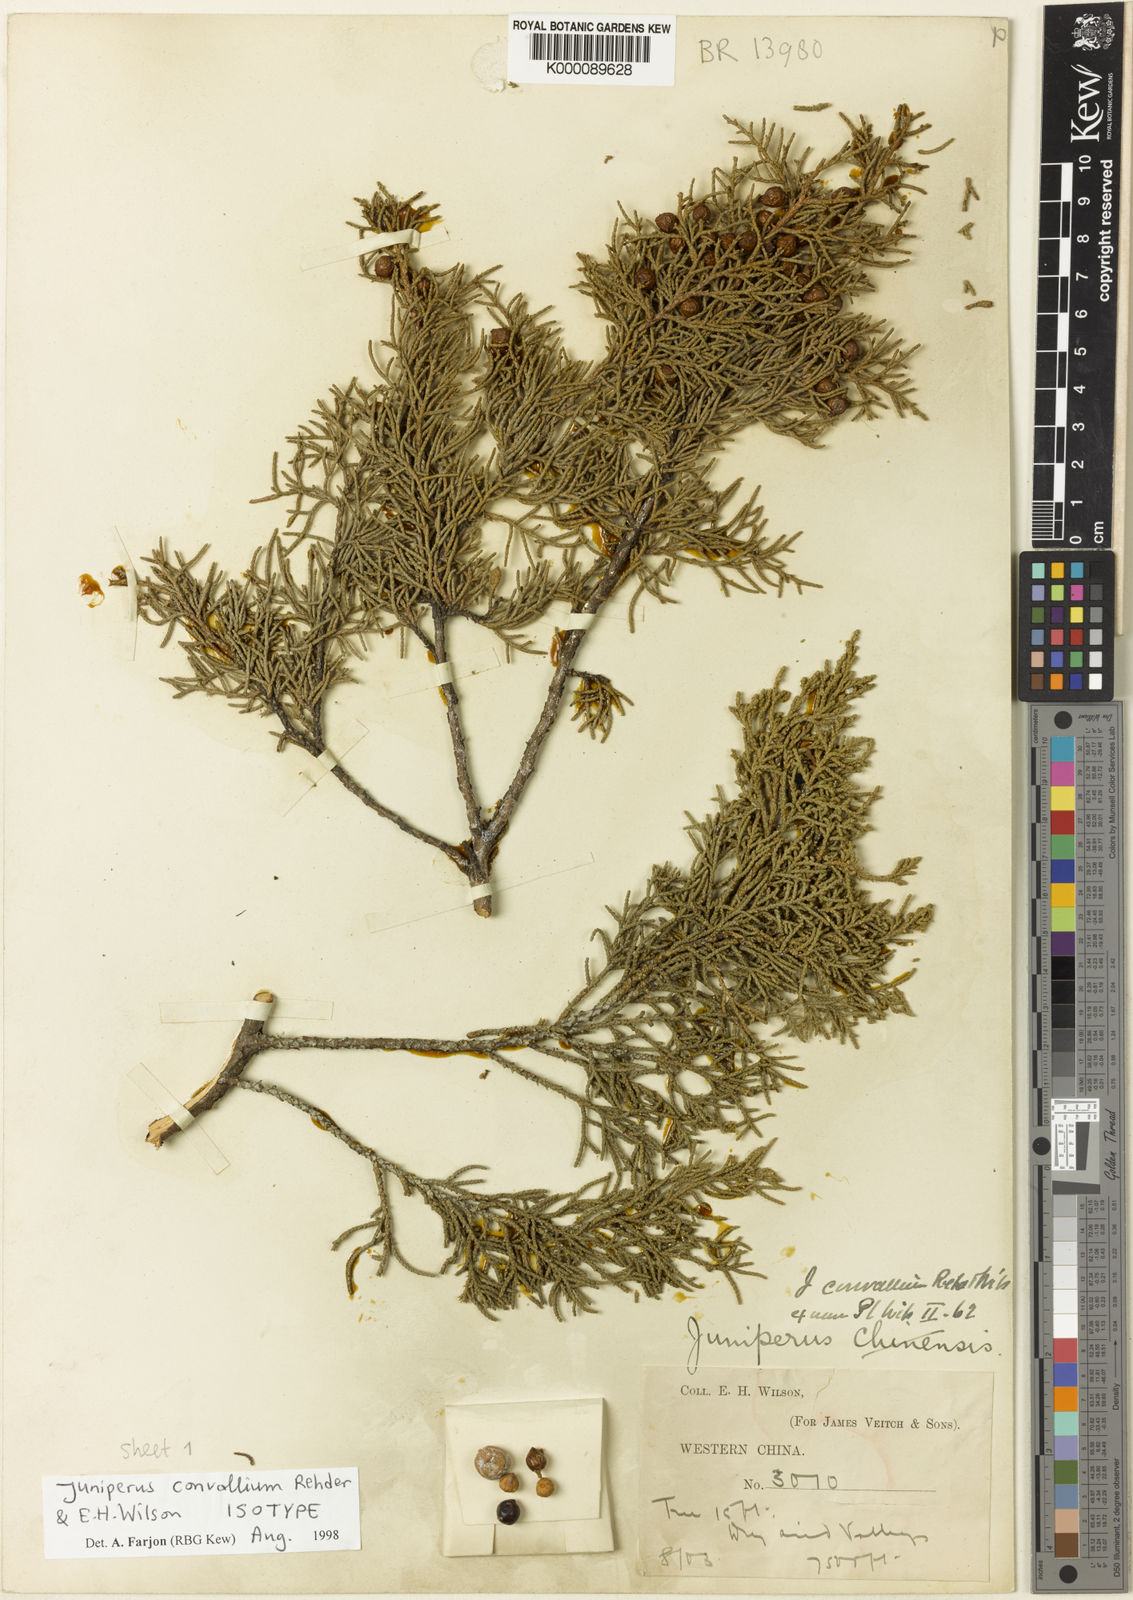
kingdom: Plantae
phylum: Tracheophyta
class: Pinopsida
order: Pinales
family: Cupressaceae
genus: Juniperus
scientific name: Juniperus convallium
